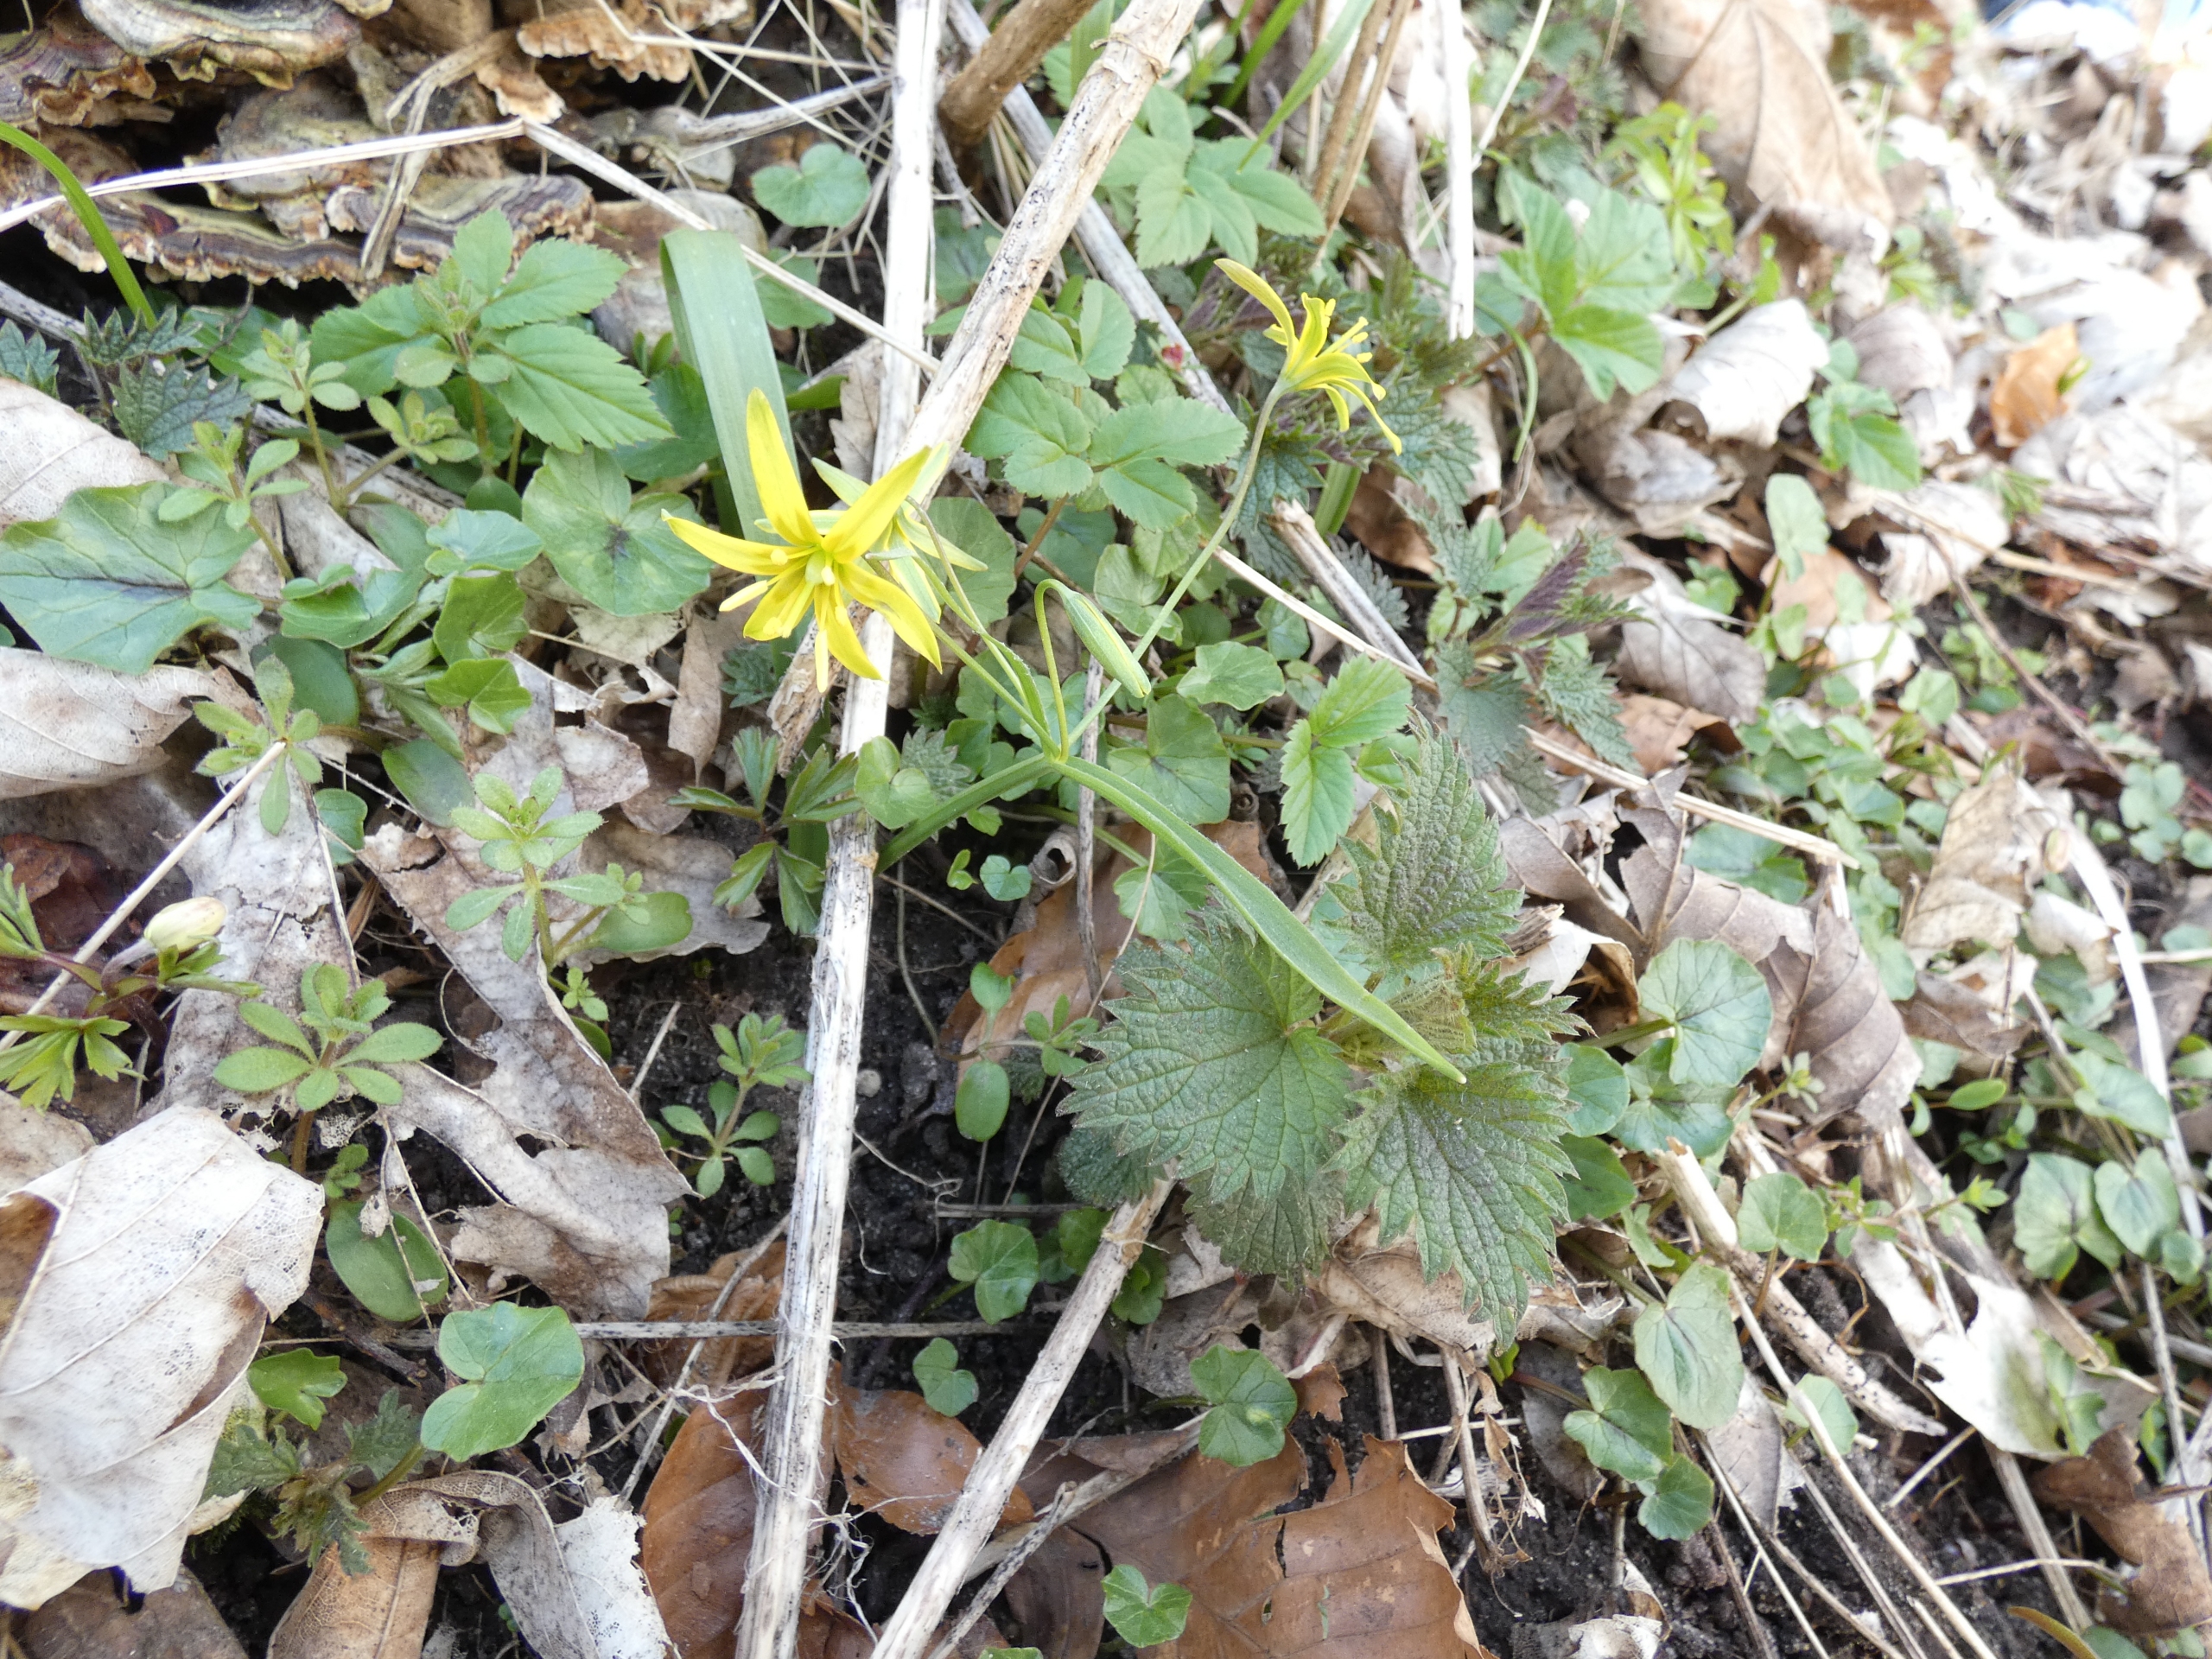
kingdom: Plantae
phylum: Tracheophyta
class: Liliopsida
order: Liliales
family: Liliaceae
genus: Gagea
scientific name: Gagea lutea
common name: Almindelig guldstjerne
